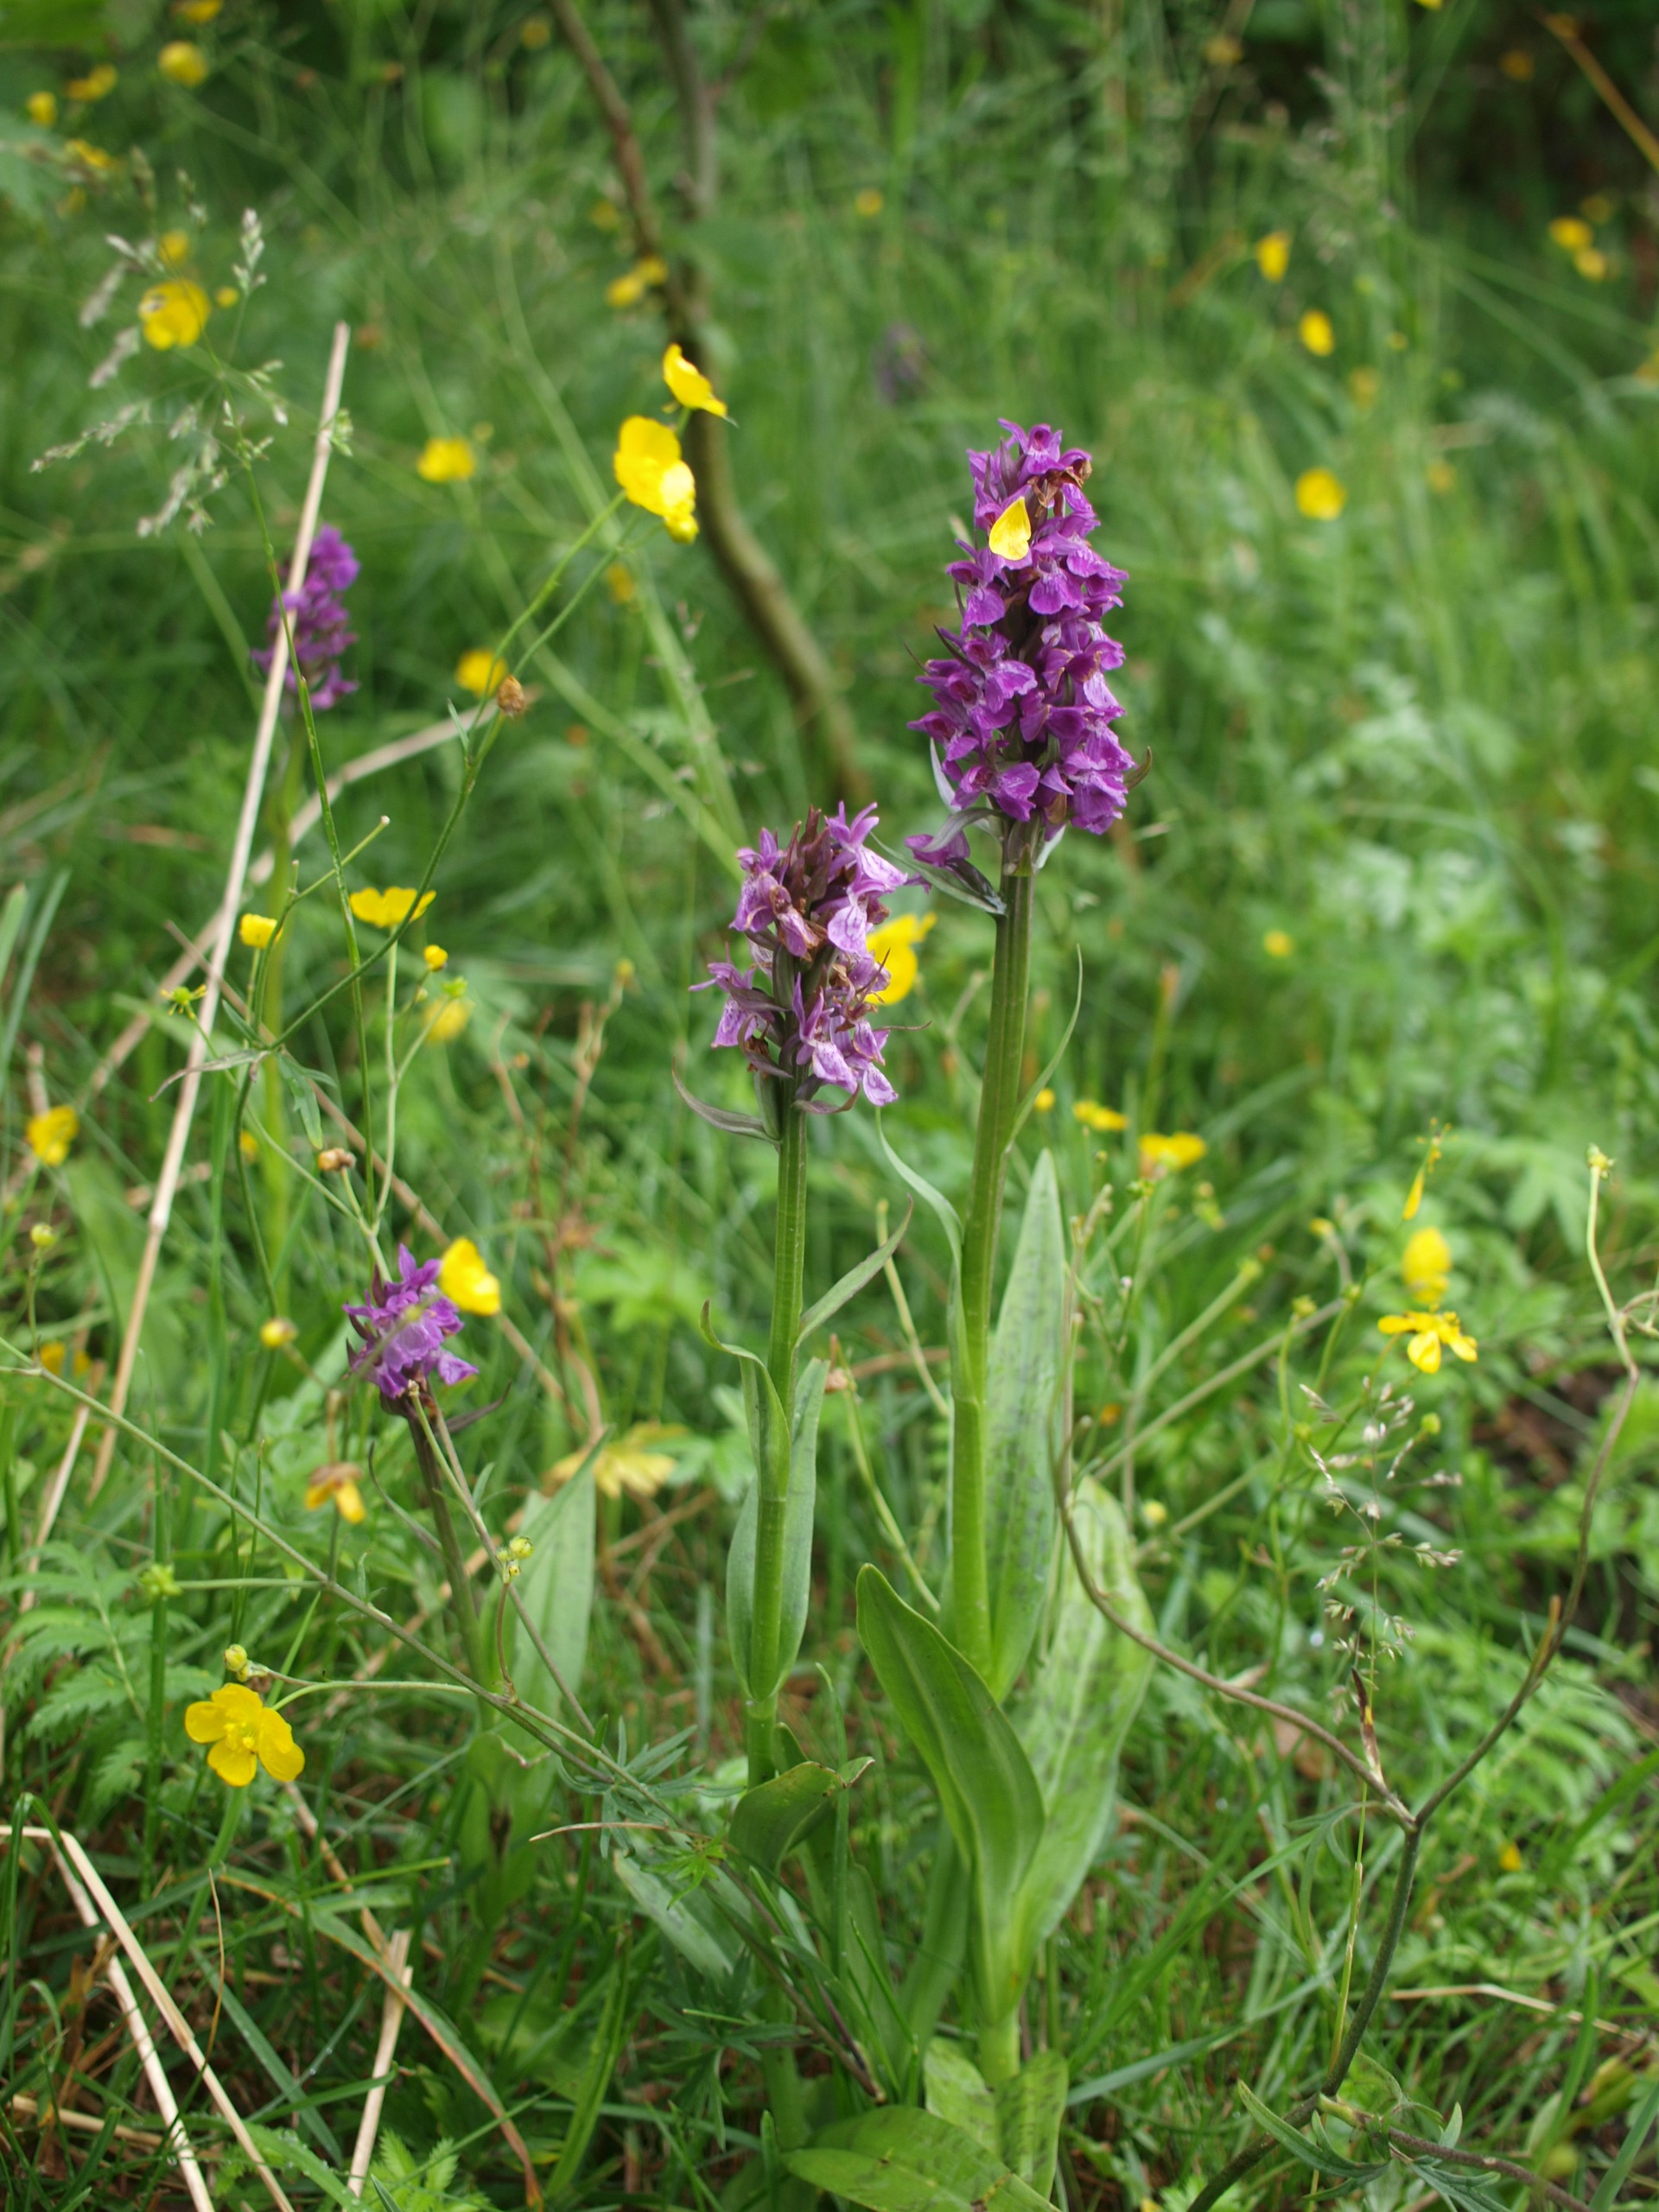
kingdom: Plantae
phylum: Tracheophyta
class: Liliopsida
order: Asparagales
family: Orchidaceae
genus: Dactylorhiza
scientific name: Dactylorhiza majalis
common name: Maj-gøgeurt
